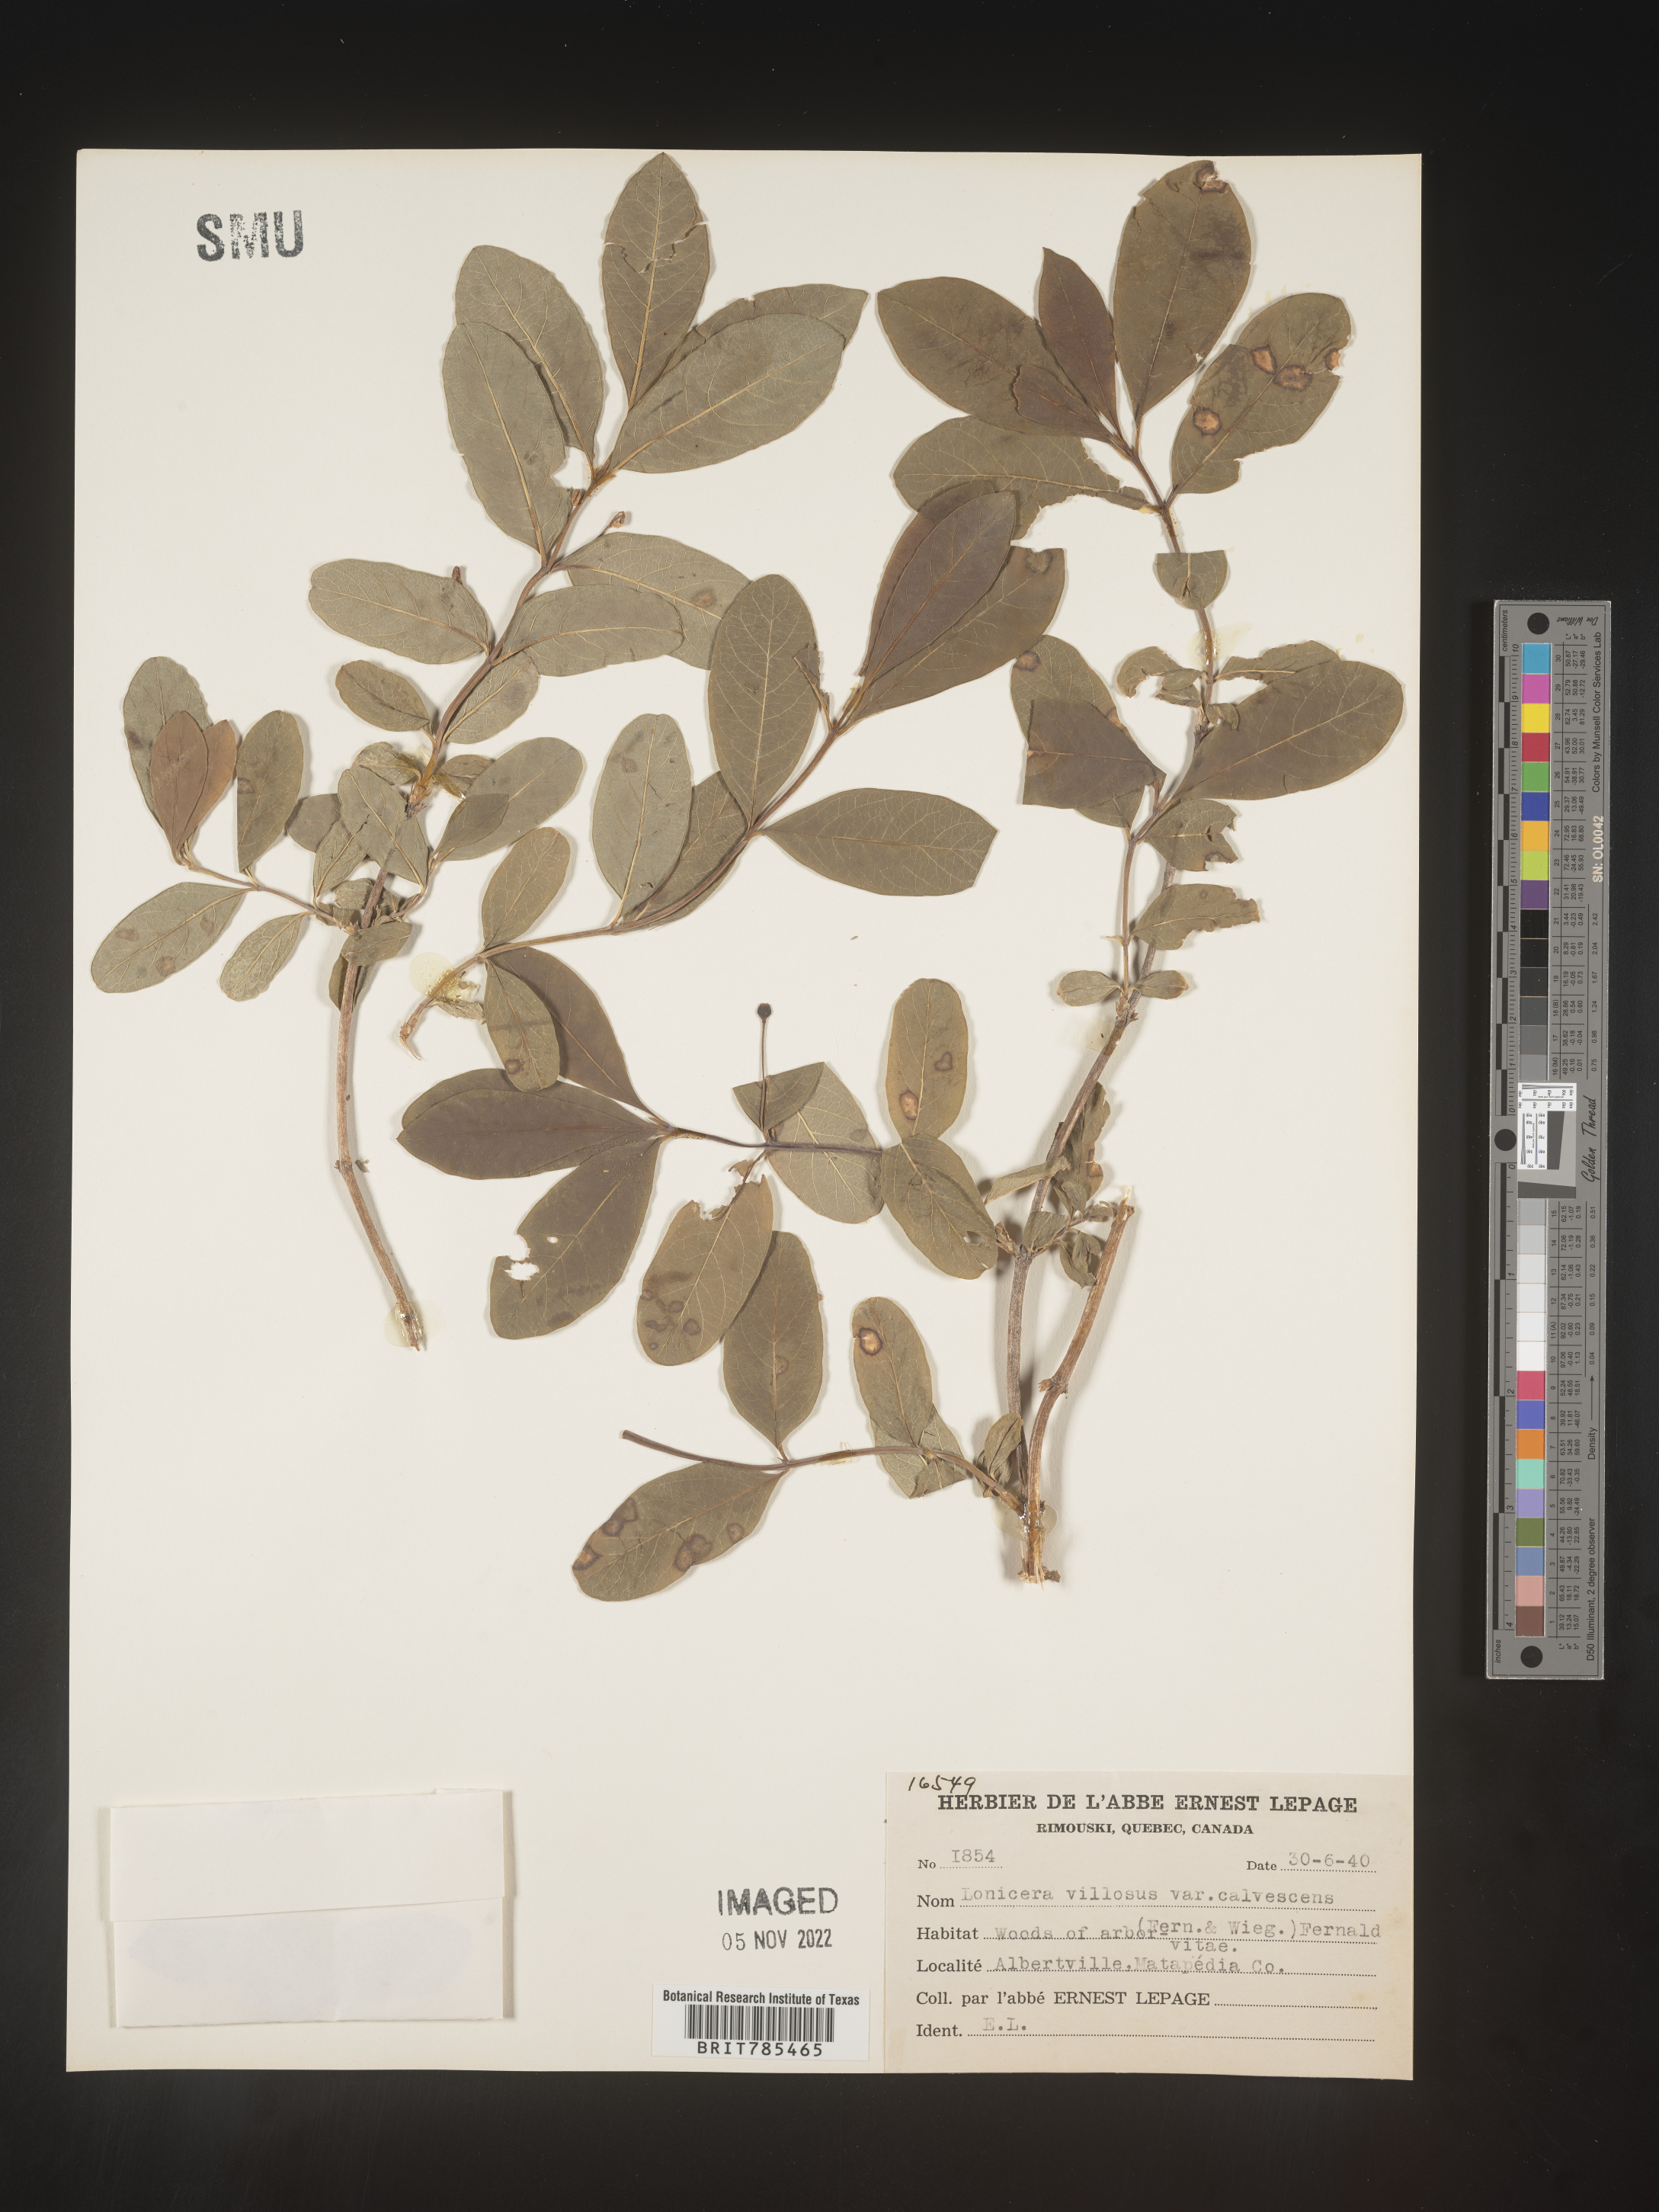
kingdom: Plantae
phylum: Tracheophyta
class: Magnoliopsida
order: Dipsacales
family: Caprifoliaceae
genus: Lonicera
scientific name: Lonicera
